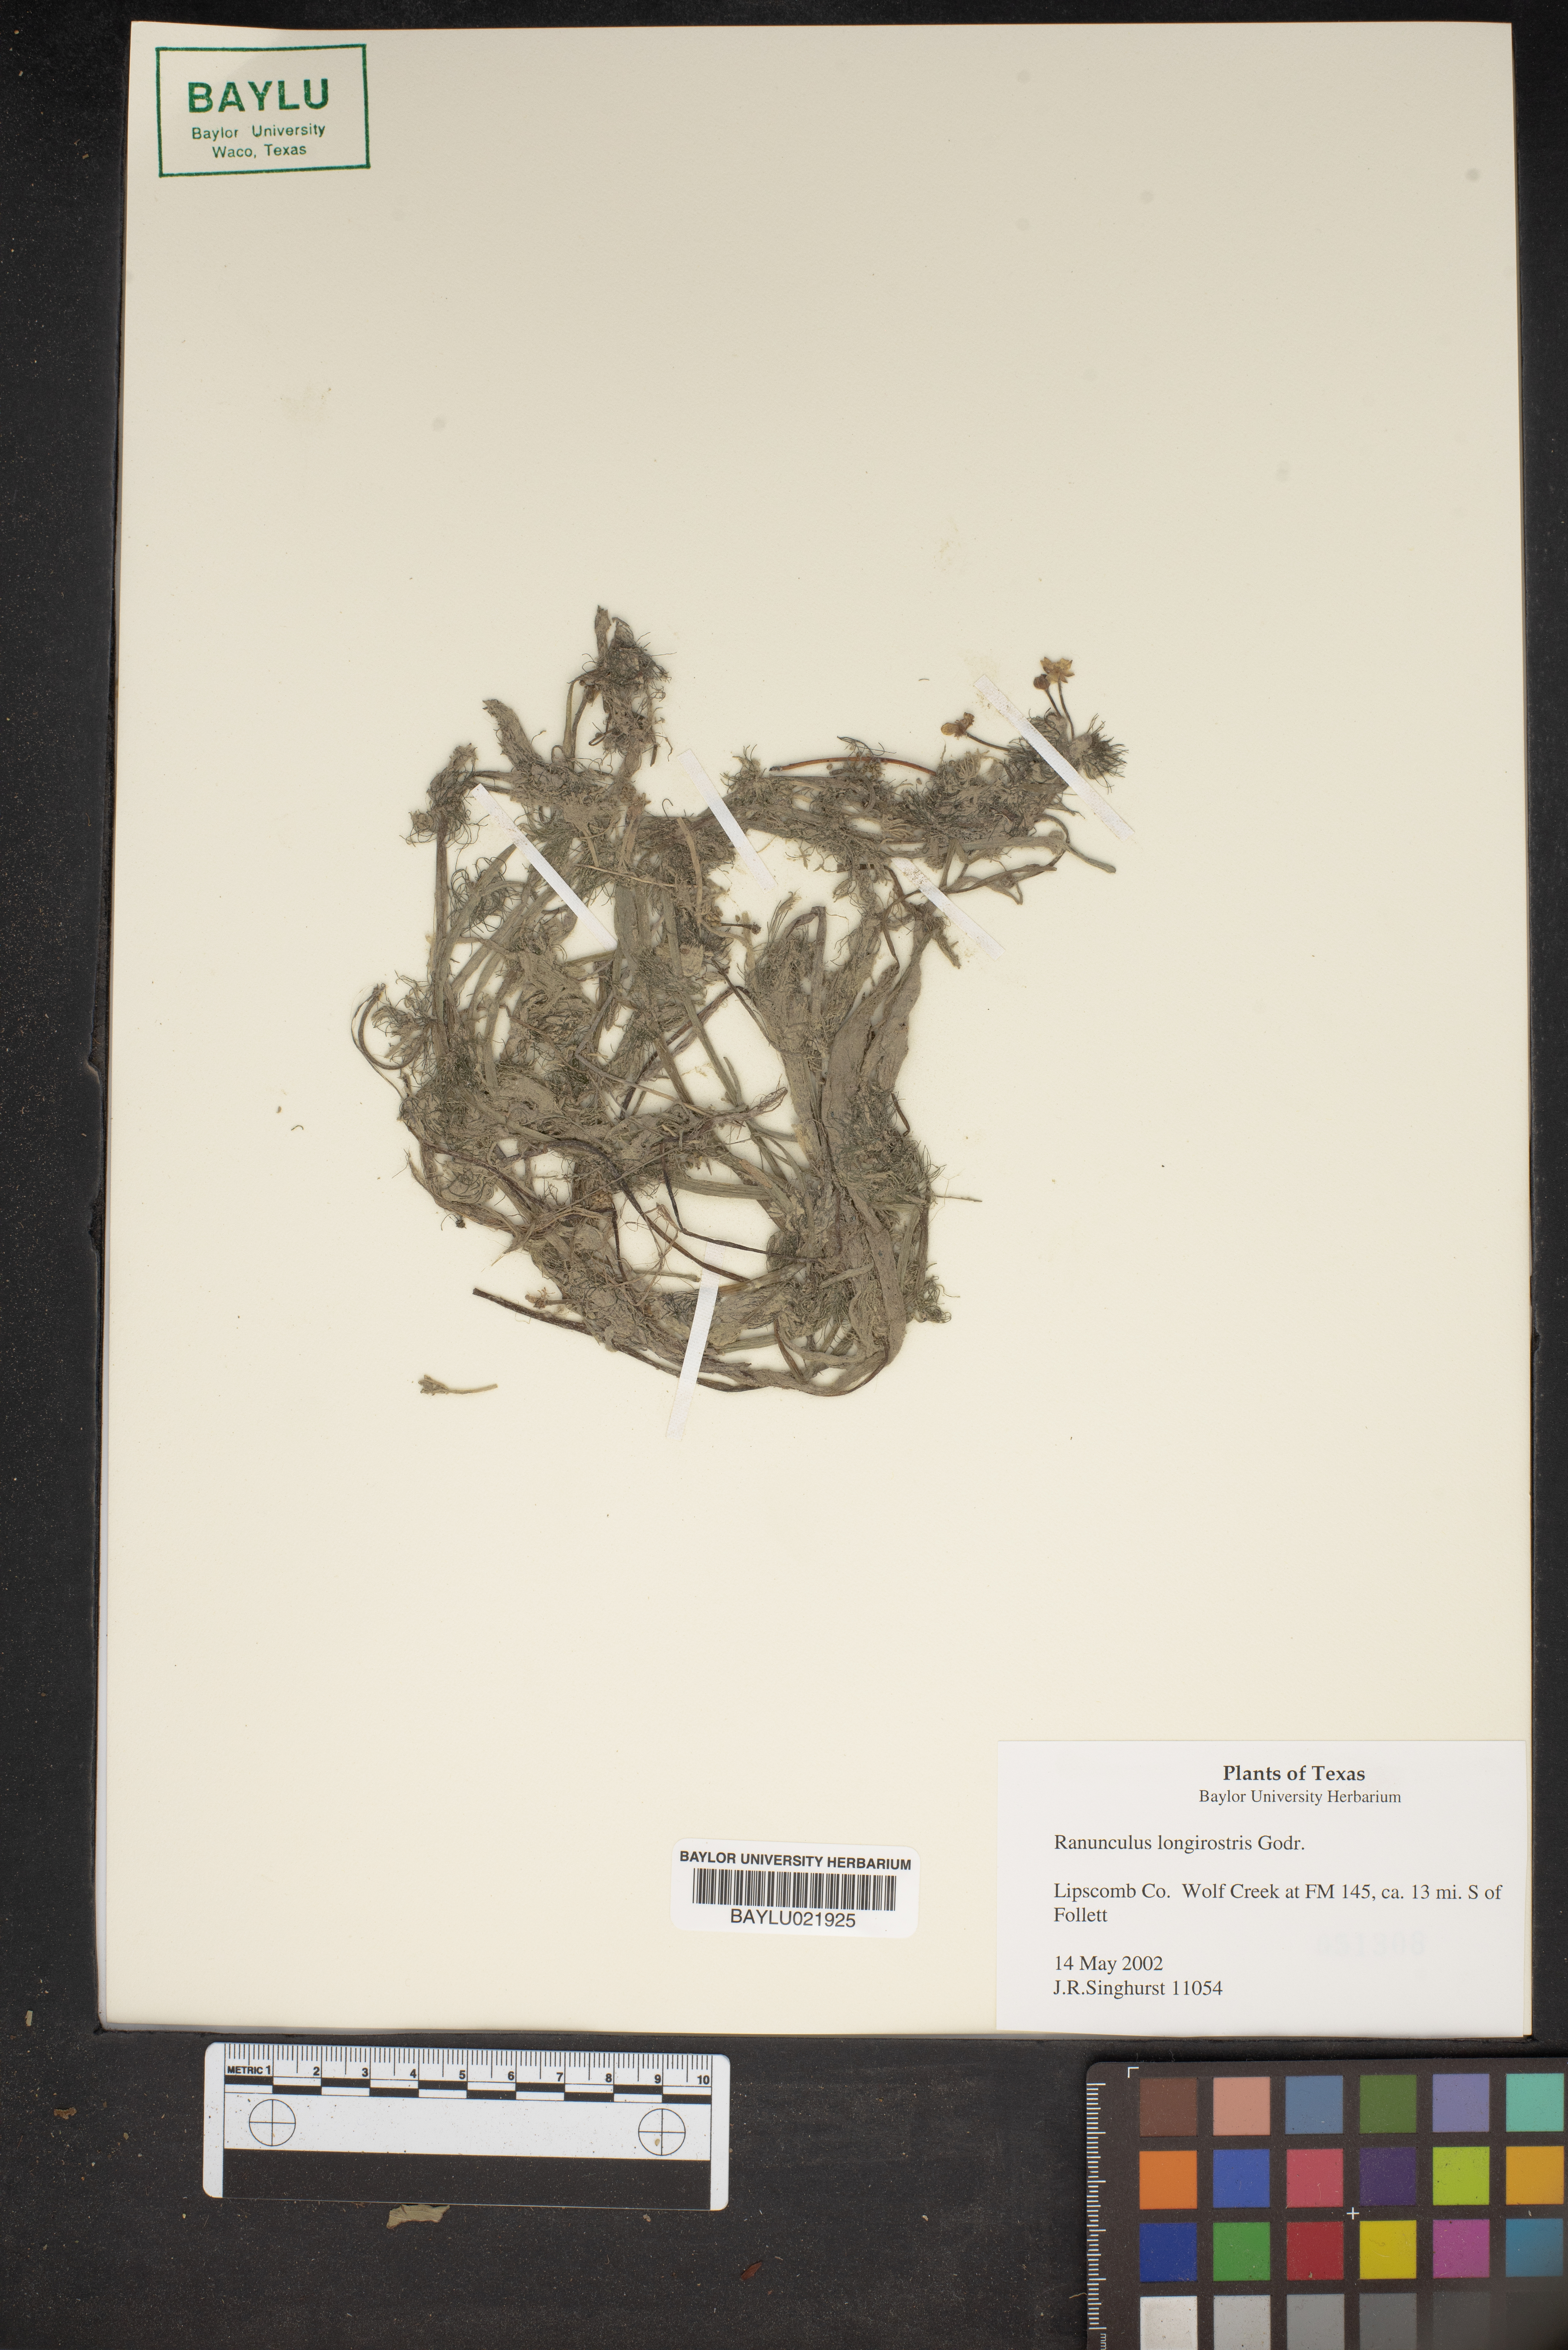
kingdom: Plantae
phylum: Tracheophyta
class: Magnoliopsida
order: Ranunculales
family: Ranunculaceae
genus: Ranunculus
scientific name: Ranunculus longirostris
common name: Curly white water-crowfoot
